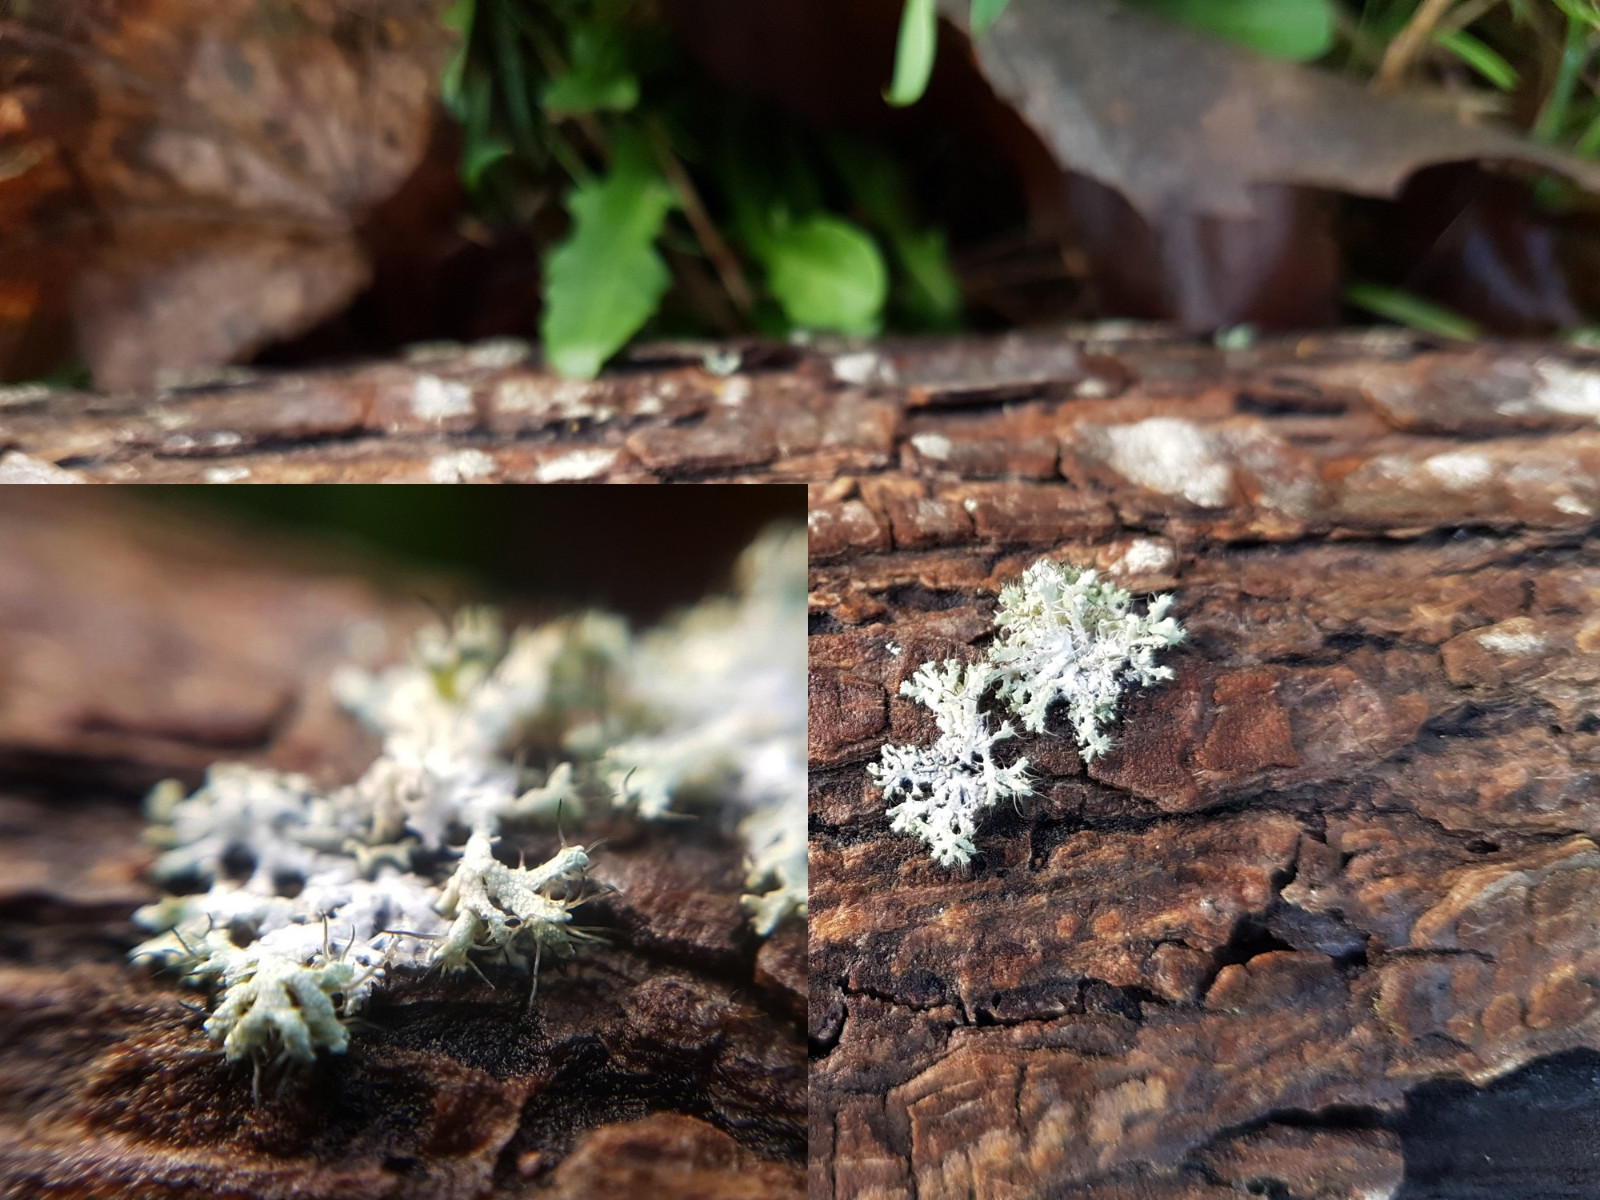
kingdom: Fungi
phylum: Ascomycota
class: Lecanoromycetes
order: Caliciales
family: Physciaceae
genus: Physcia
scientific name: Physcia
